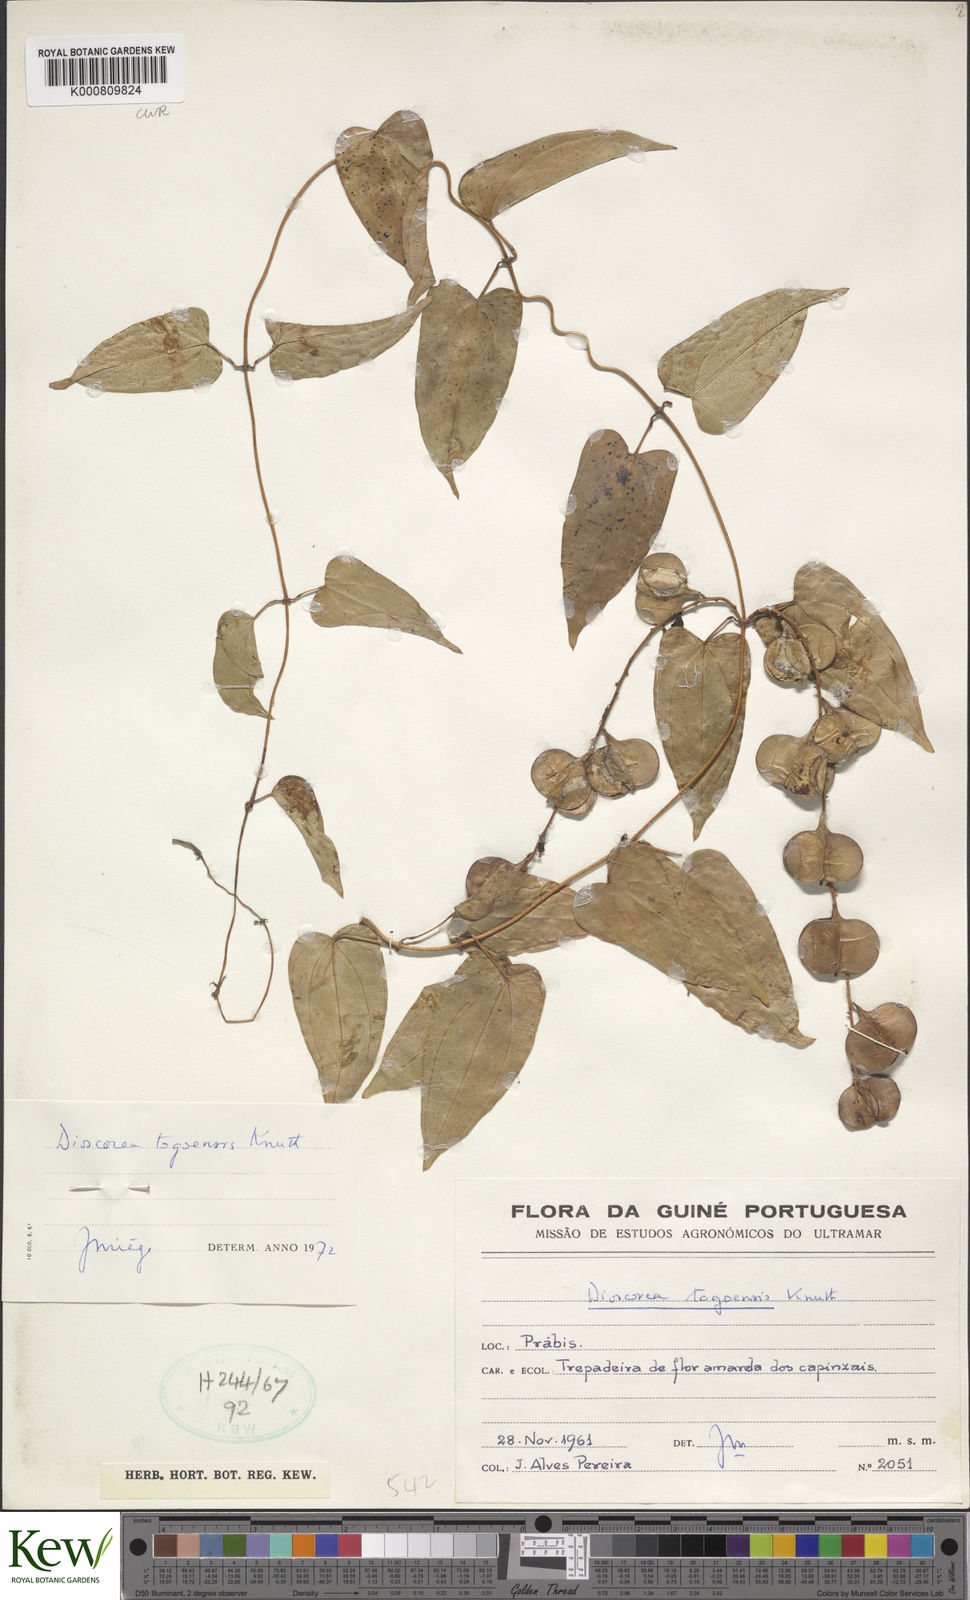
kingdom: Plantae
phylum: Tracheophyta
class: Liliopsida
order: Dioscoreales
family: Dioscoreaceae
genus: Dioscorea
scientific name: Dioscorea togoensis
